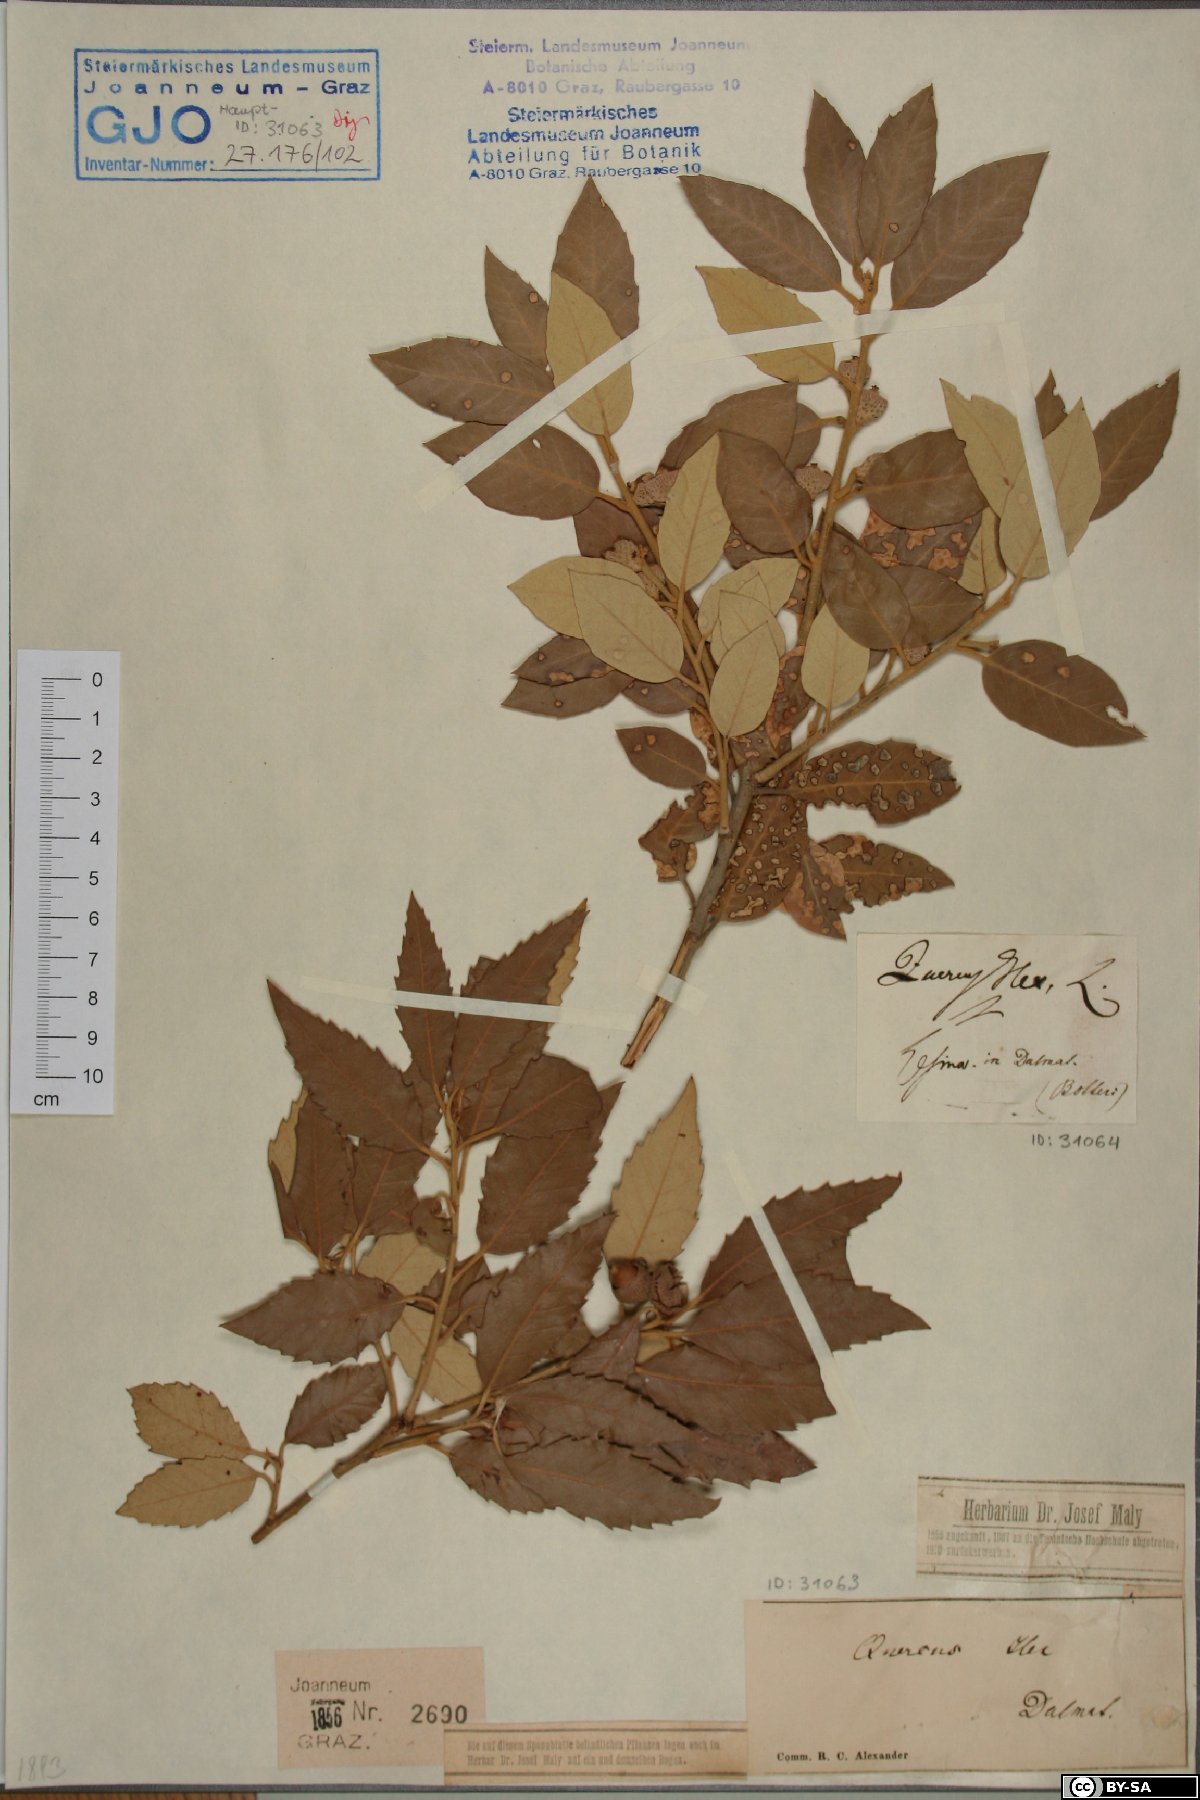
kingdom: Plantae
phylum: Tracheophyta
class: Magnoliopsida
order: Fagales
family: Fagaceae
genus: Quercus
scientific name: Quercus ilex
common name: Evergreen oak
